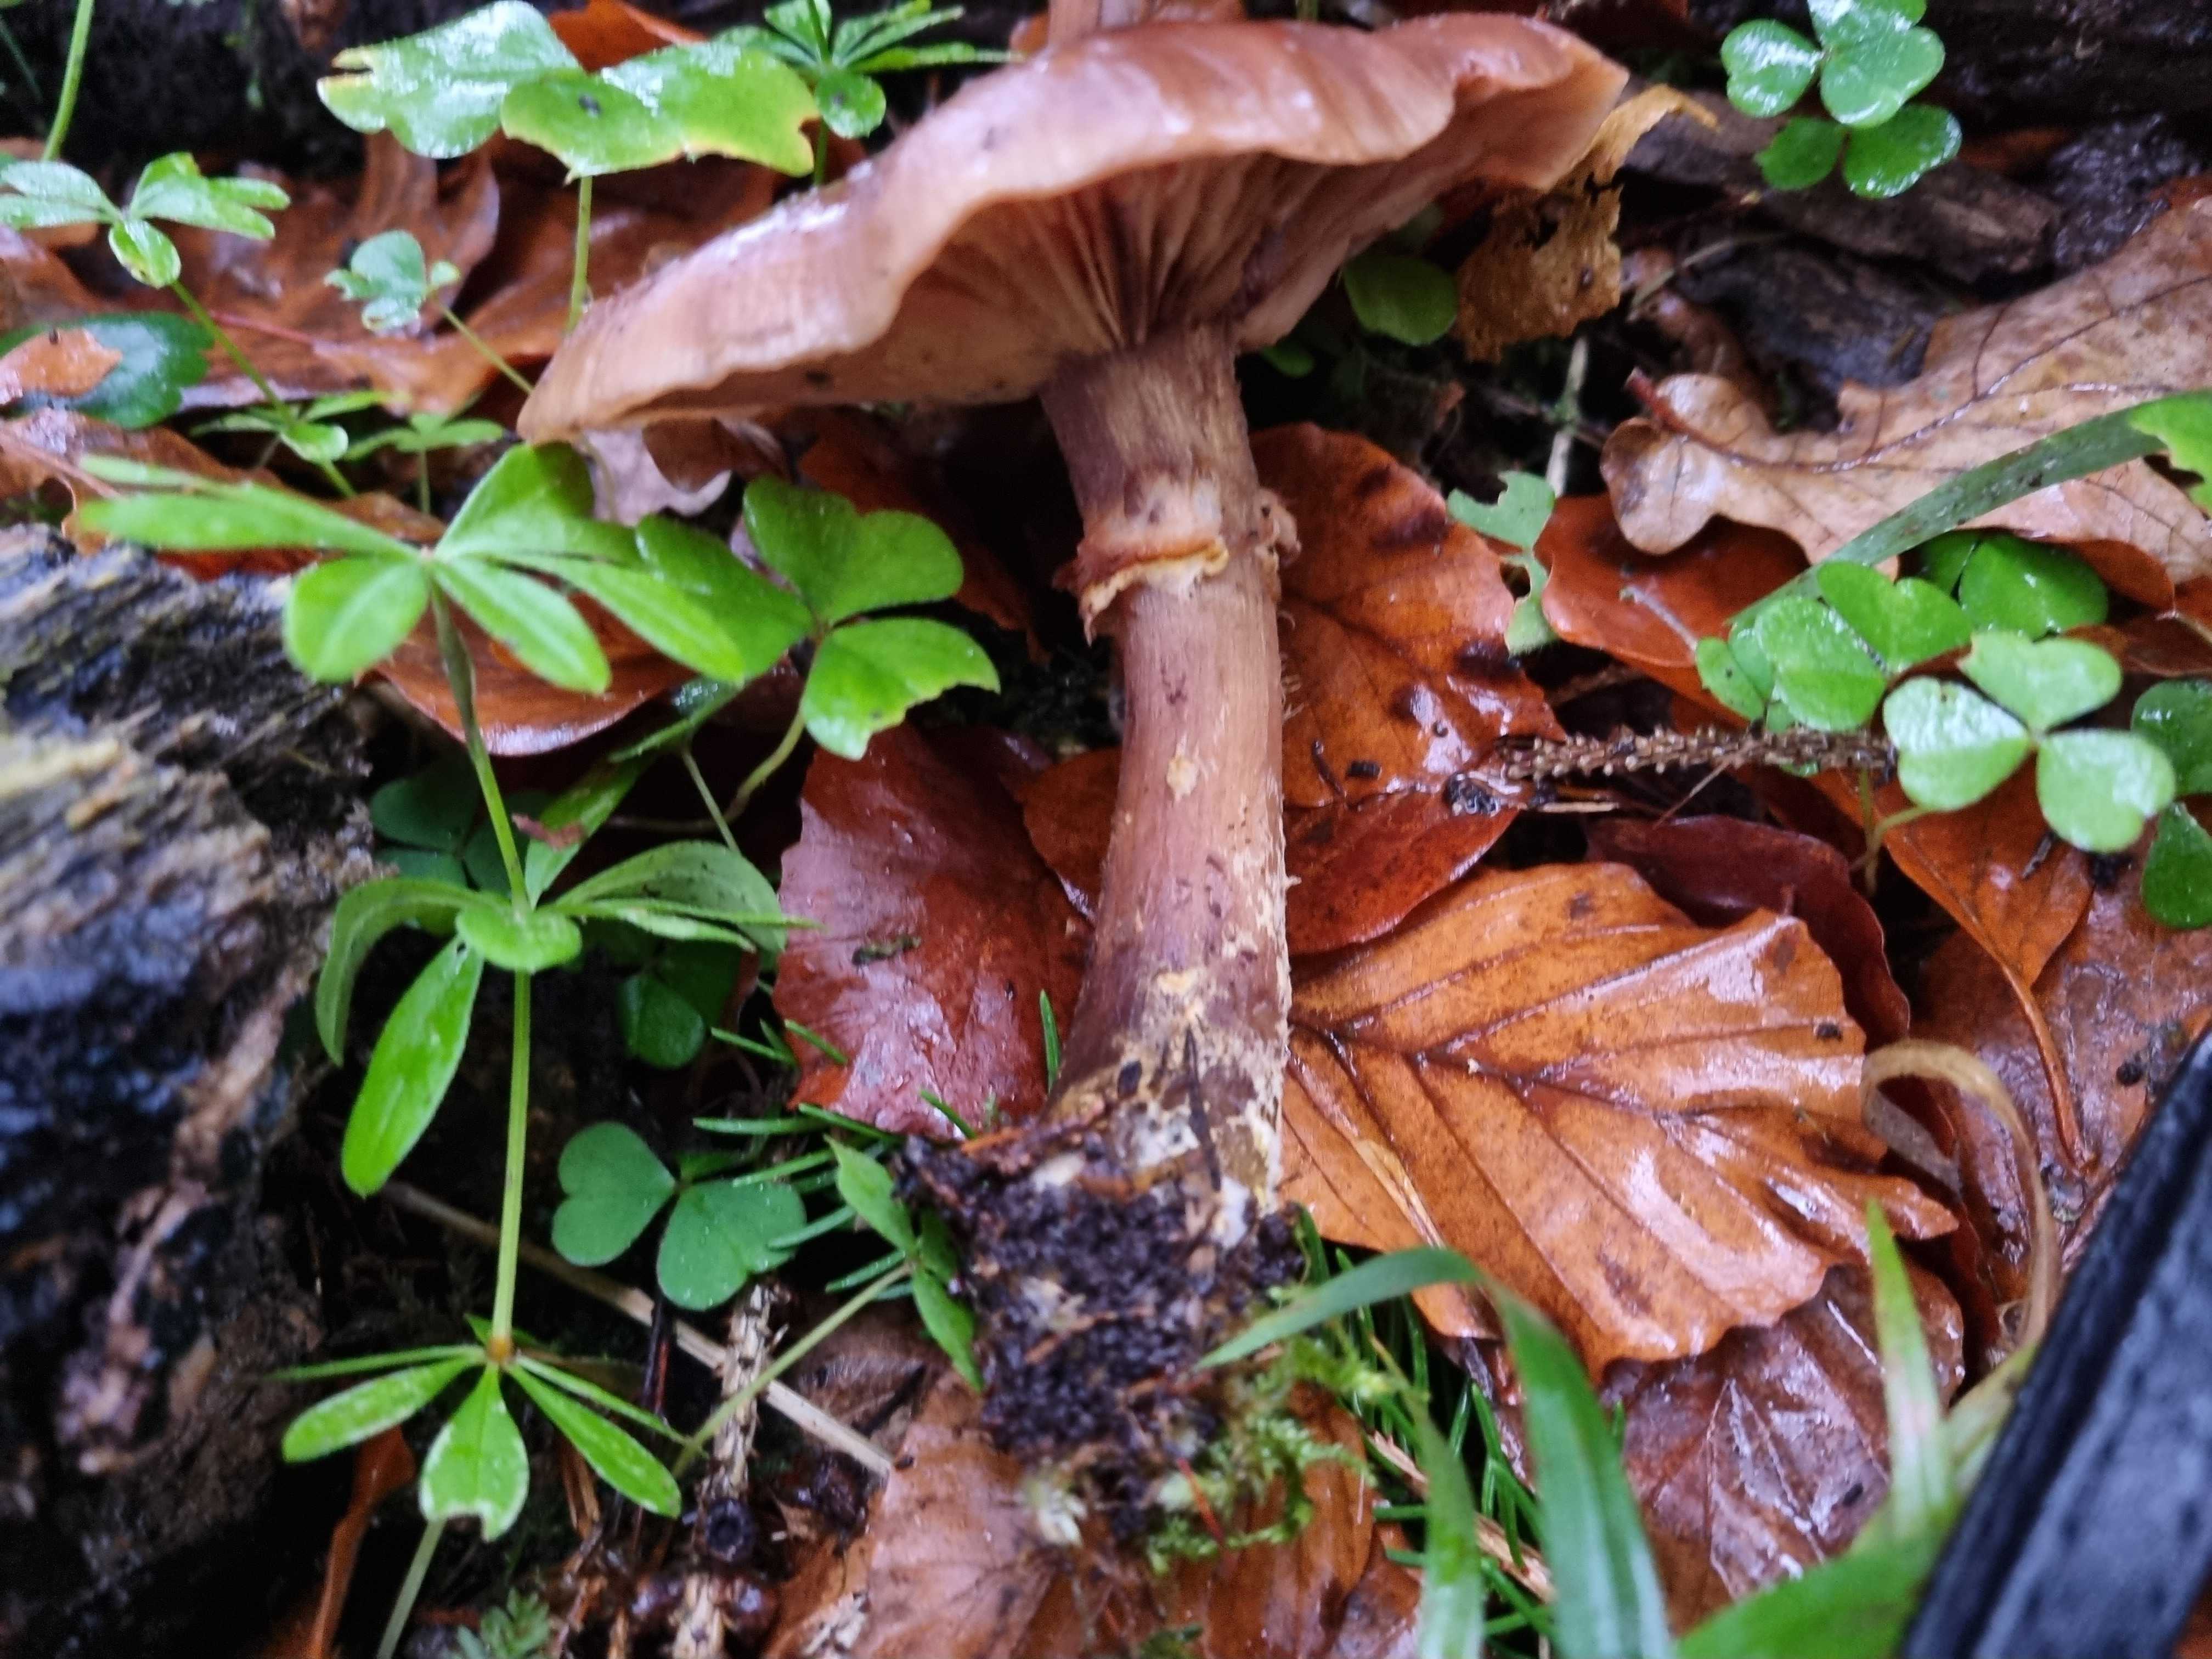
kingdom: Fungi
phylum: Basidiomycota
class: Agaricomycetes
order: Agaricales
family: Physalacriaceae
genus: Armillaria
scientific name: Armillaria
